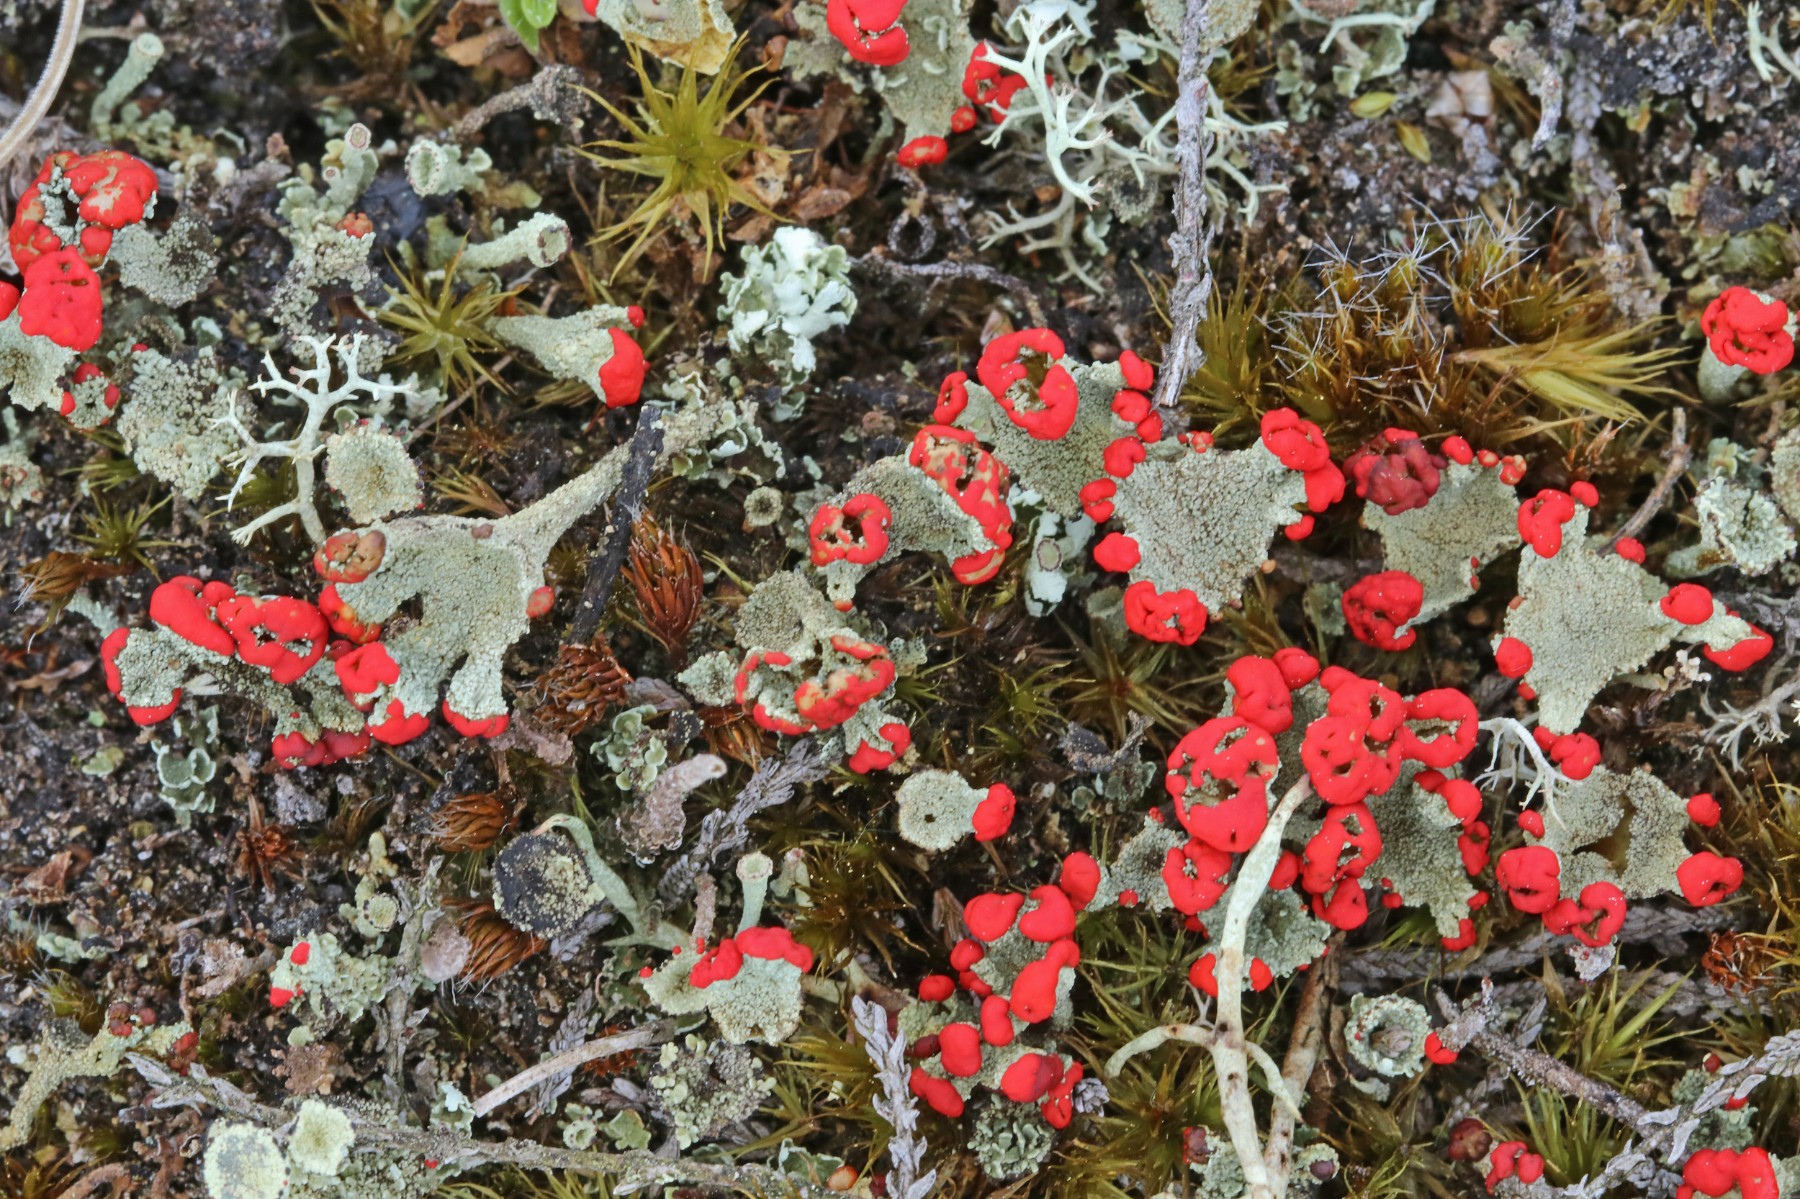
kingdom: Fungi
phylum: Ascomycota
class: Lecanoromycetes
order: Lecanorales
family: Cladoniaceae
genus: Cladonia
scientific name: Cladonia diversa
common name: rød bægerlav
